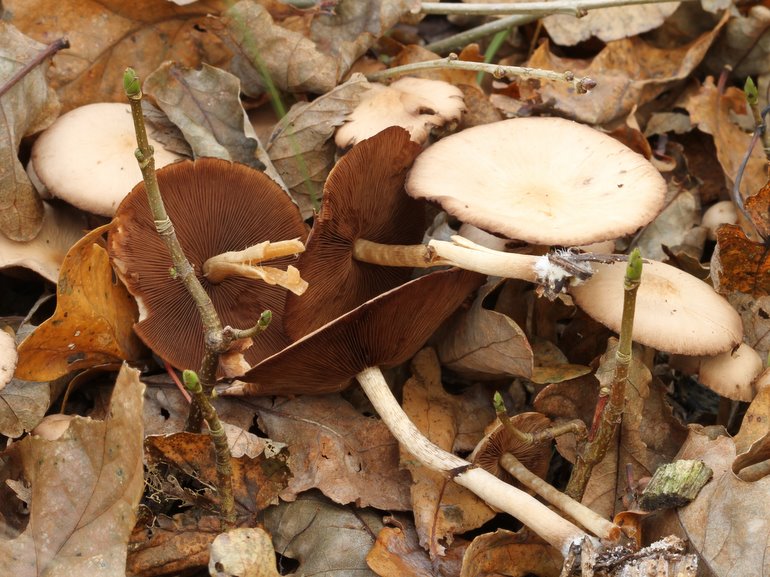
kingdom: Fungi
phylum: Basidiomycota
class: Agaricomycetes
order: Agaricales
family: Psathyrellaceae
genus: Psathyrella
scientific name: Psathyrella piluliformis
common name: lysstokket mørkhat
